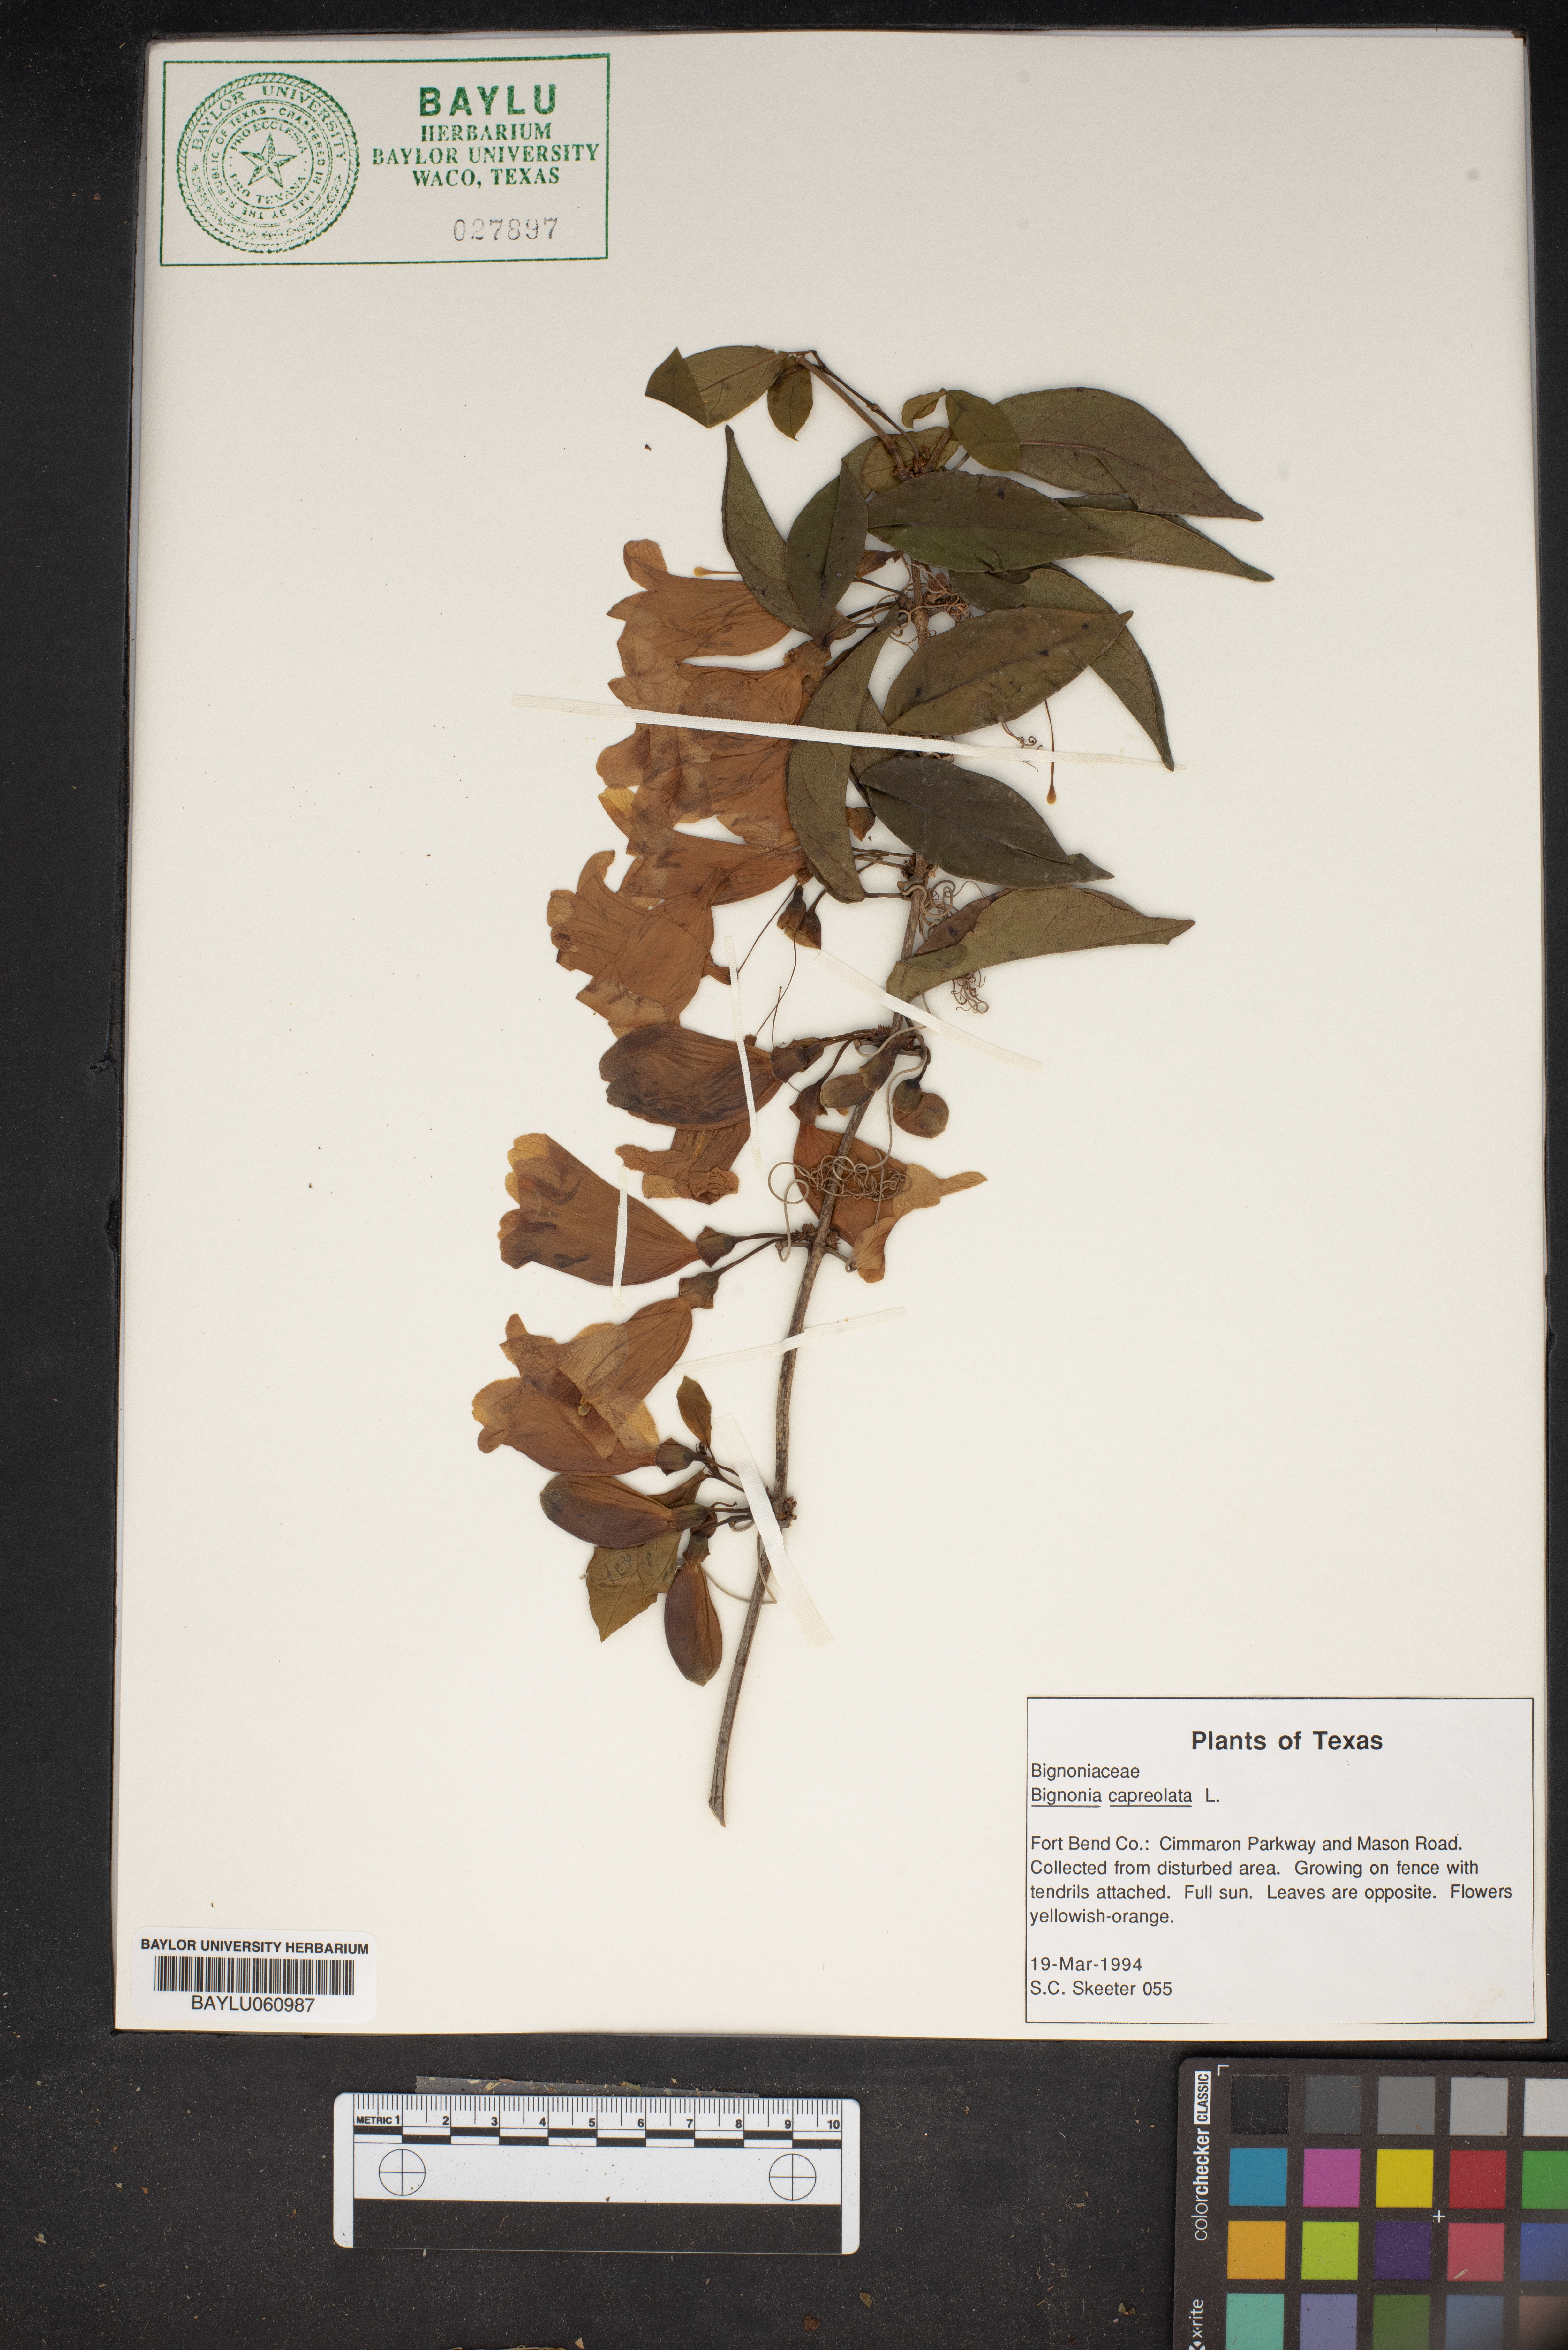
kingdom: Plantae
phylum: Tracheophyta
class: Magnoliopsida
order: Lamiales
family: Bignoniaceae
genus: Bignonia
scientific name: Bignonia capreolata
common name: Crossvine
